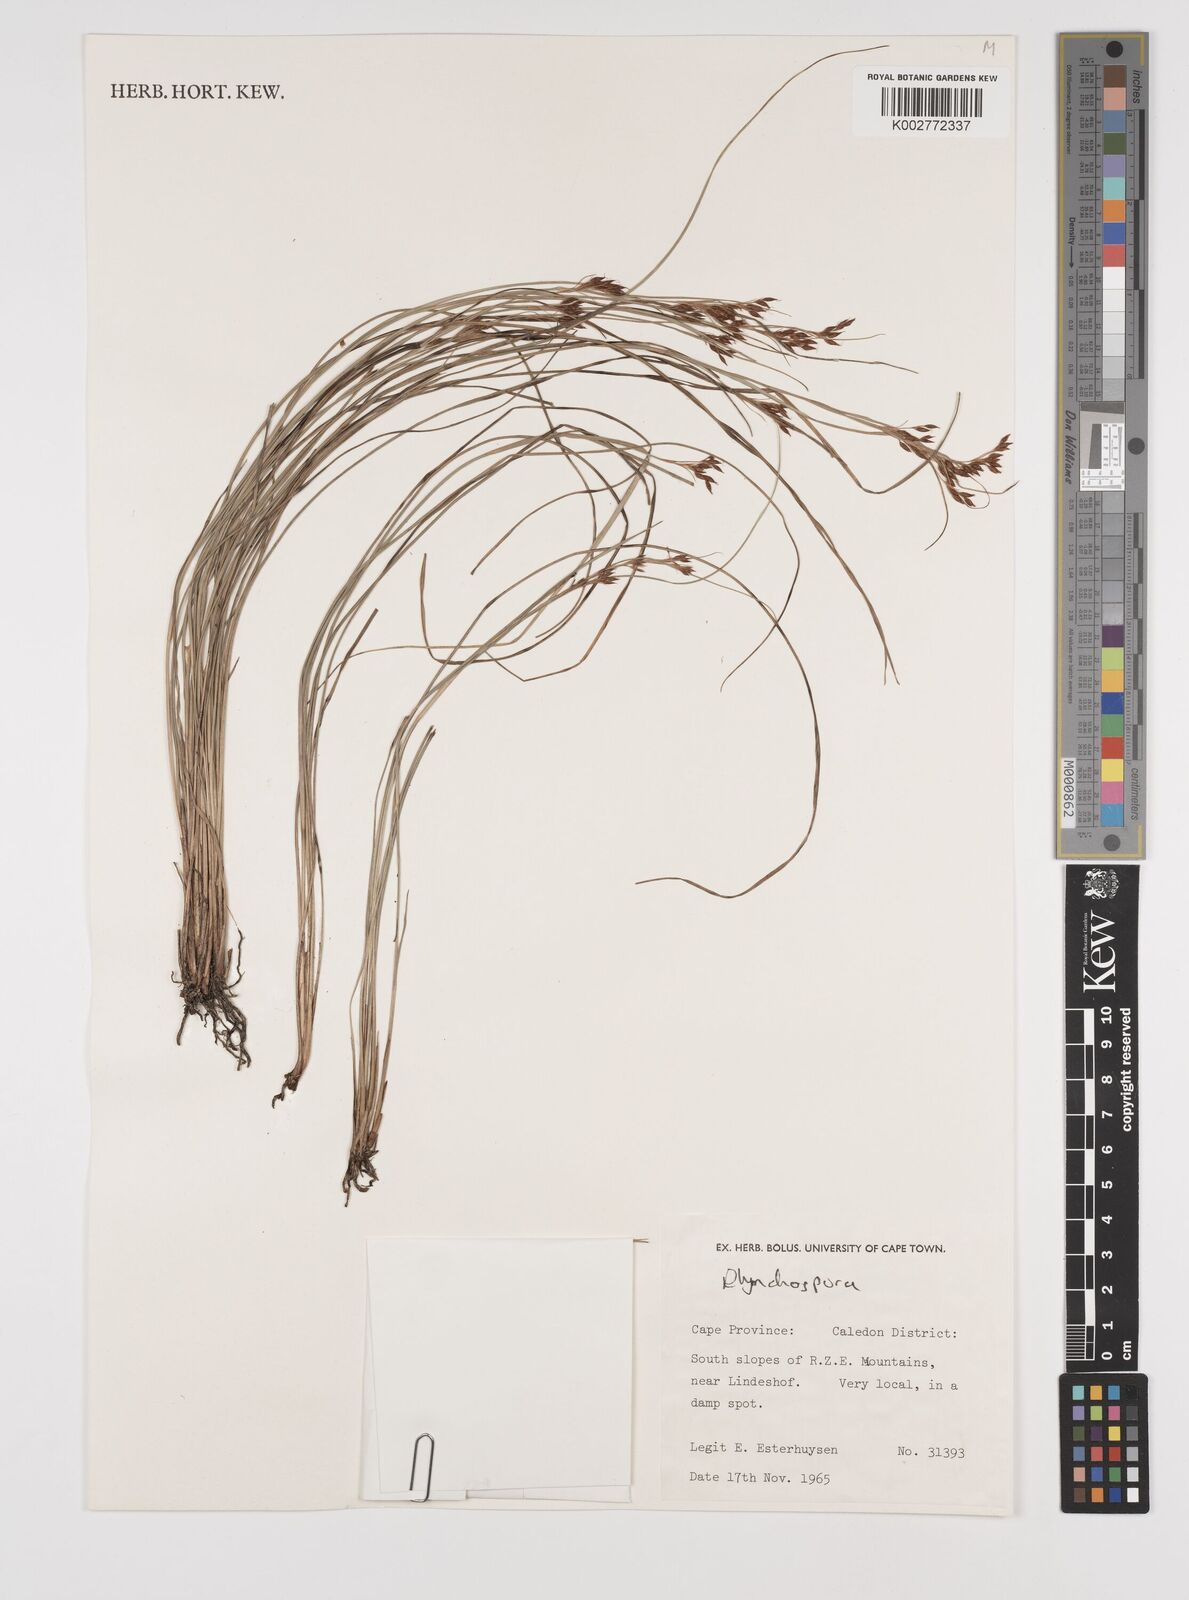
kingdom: Plantae
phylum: Tracheophyta
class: Liliopsida
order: Poales
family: Cyperaceae
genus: Rhynchospora
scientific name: Rhynchospora
